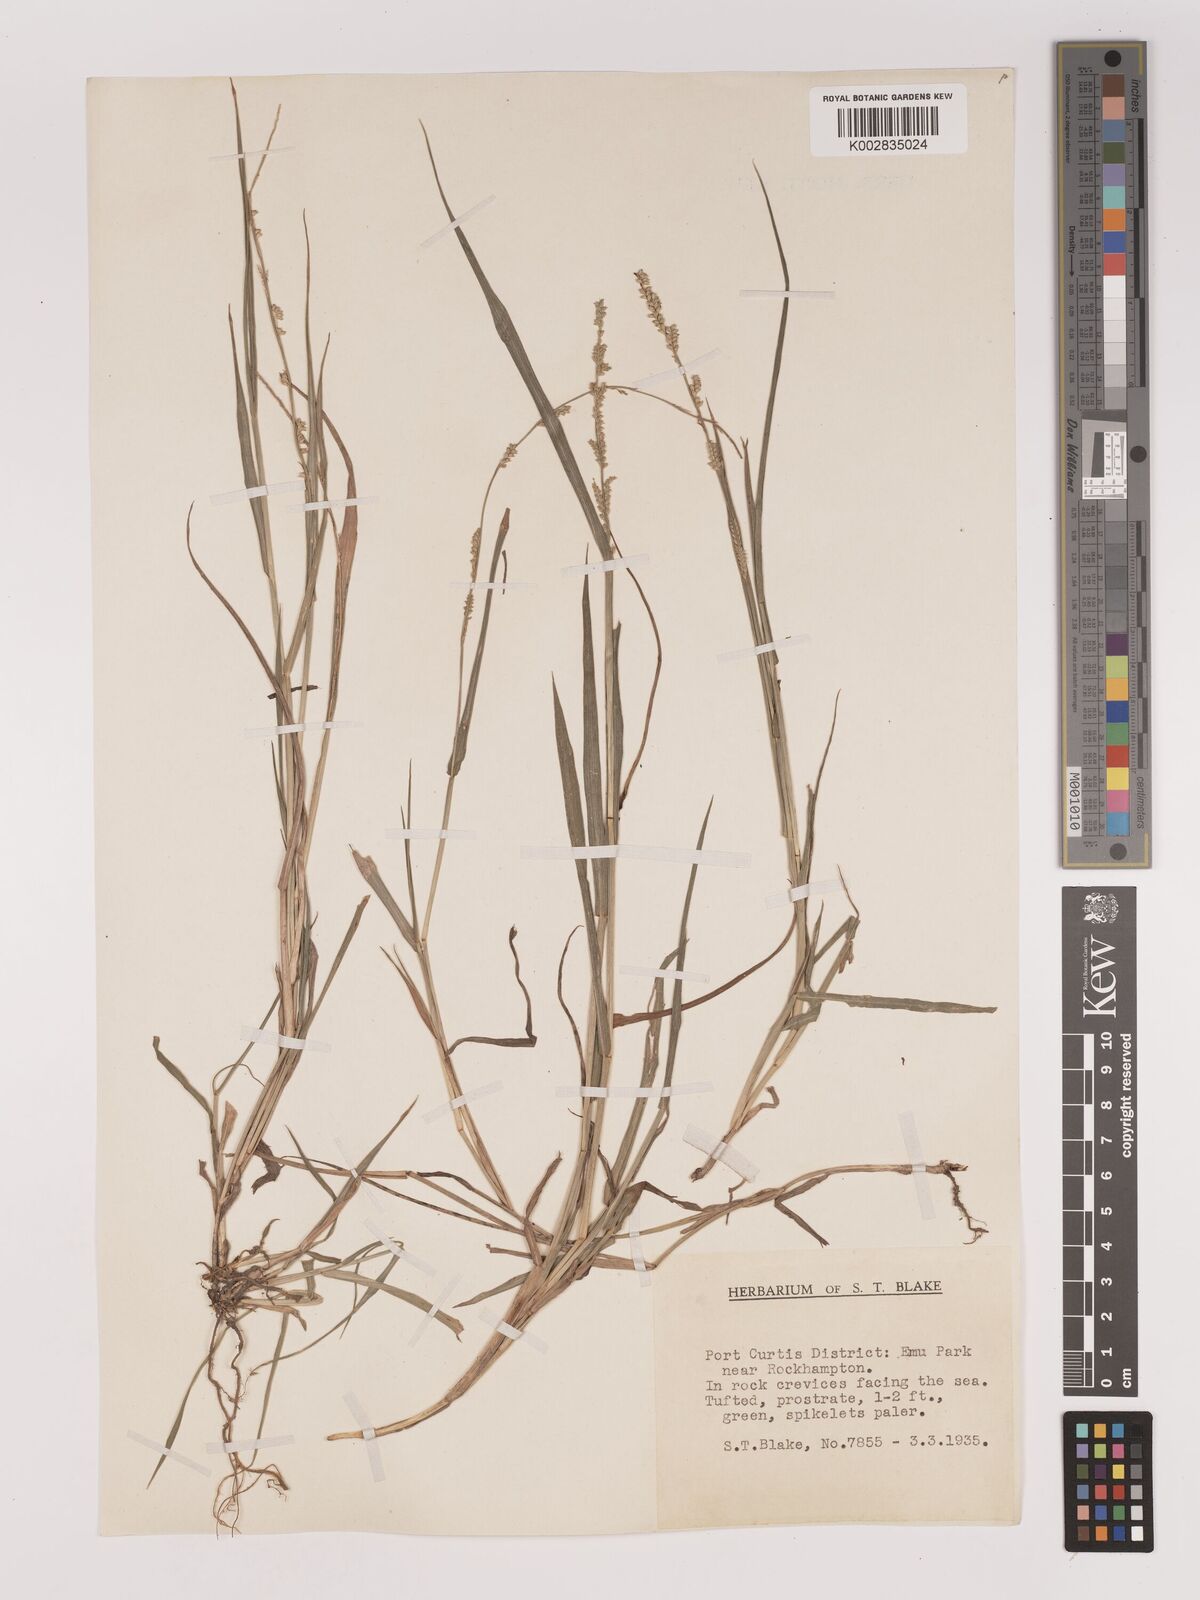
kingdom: Plantae
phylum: Tracheophyta
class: Liliopsida
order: Poales
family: Poaceae
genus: Setaria
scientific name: Setaria
